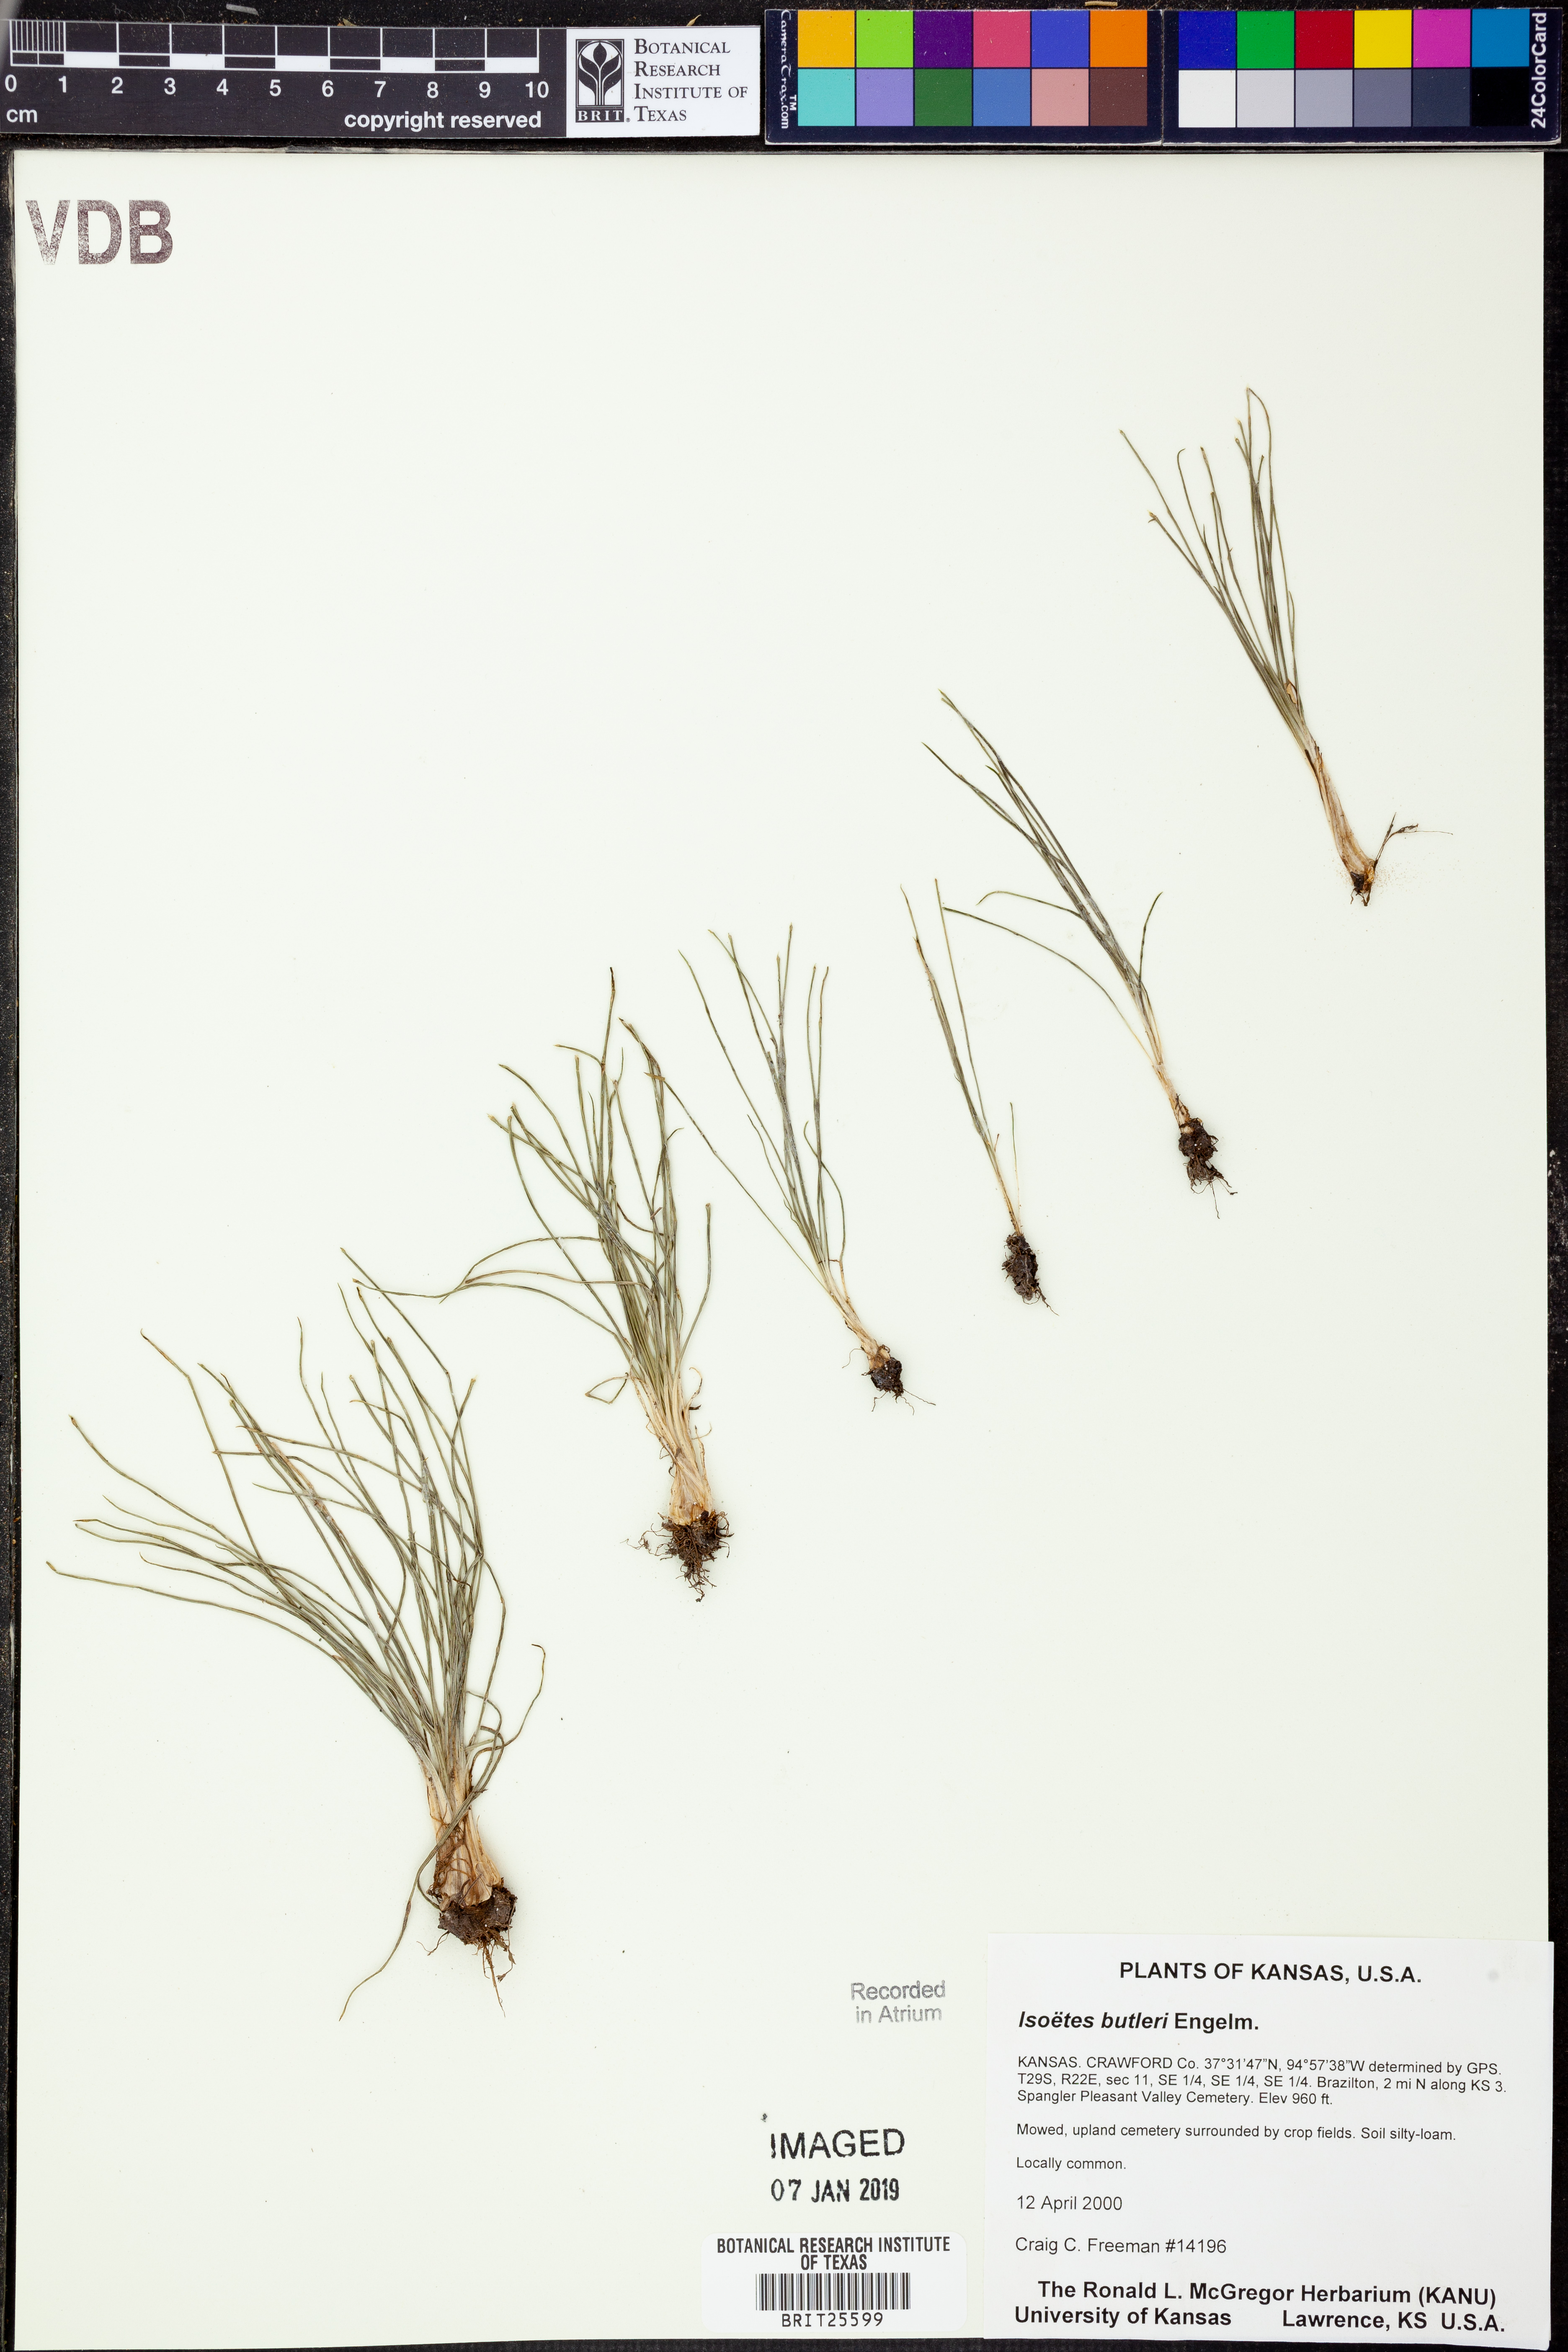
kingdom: Plantae
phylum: Tracheophyta
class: Lycopodiopsida
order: Isoetales
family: Isoetaceae
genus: Isoetes
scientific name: Isoetes butleri
